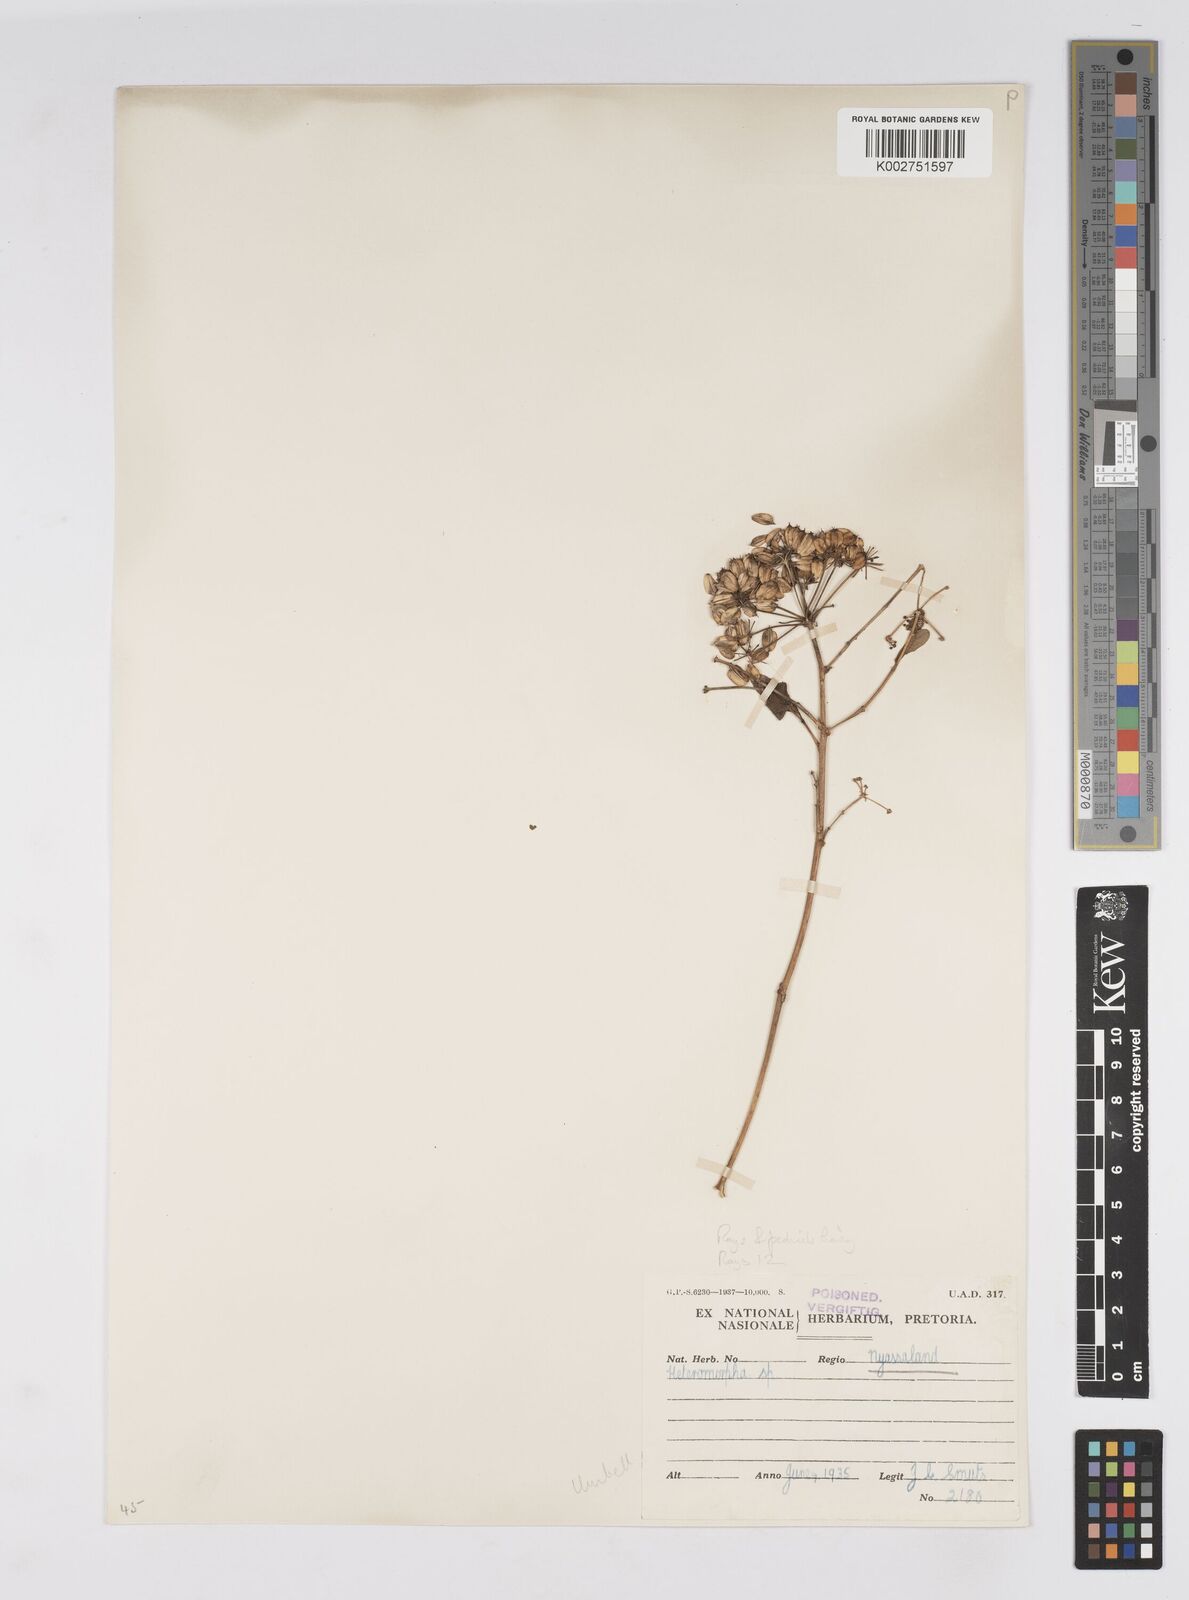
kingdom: Plantae
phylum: Tracheophyta
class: Magnoliopsida
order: Apiales
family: Apiaceae
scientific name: Apiaceae
